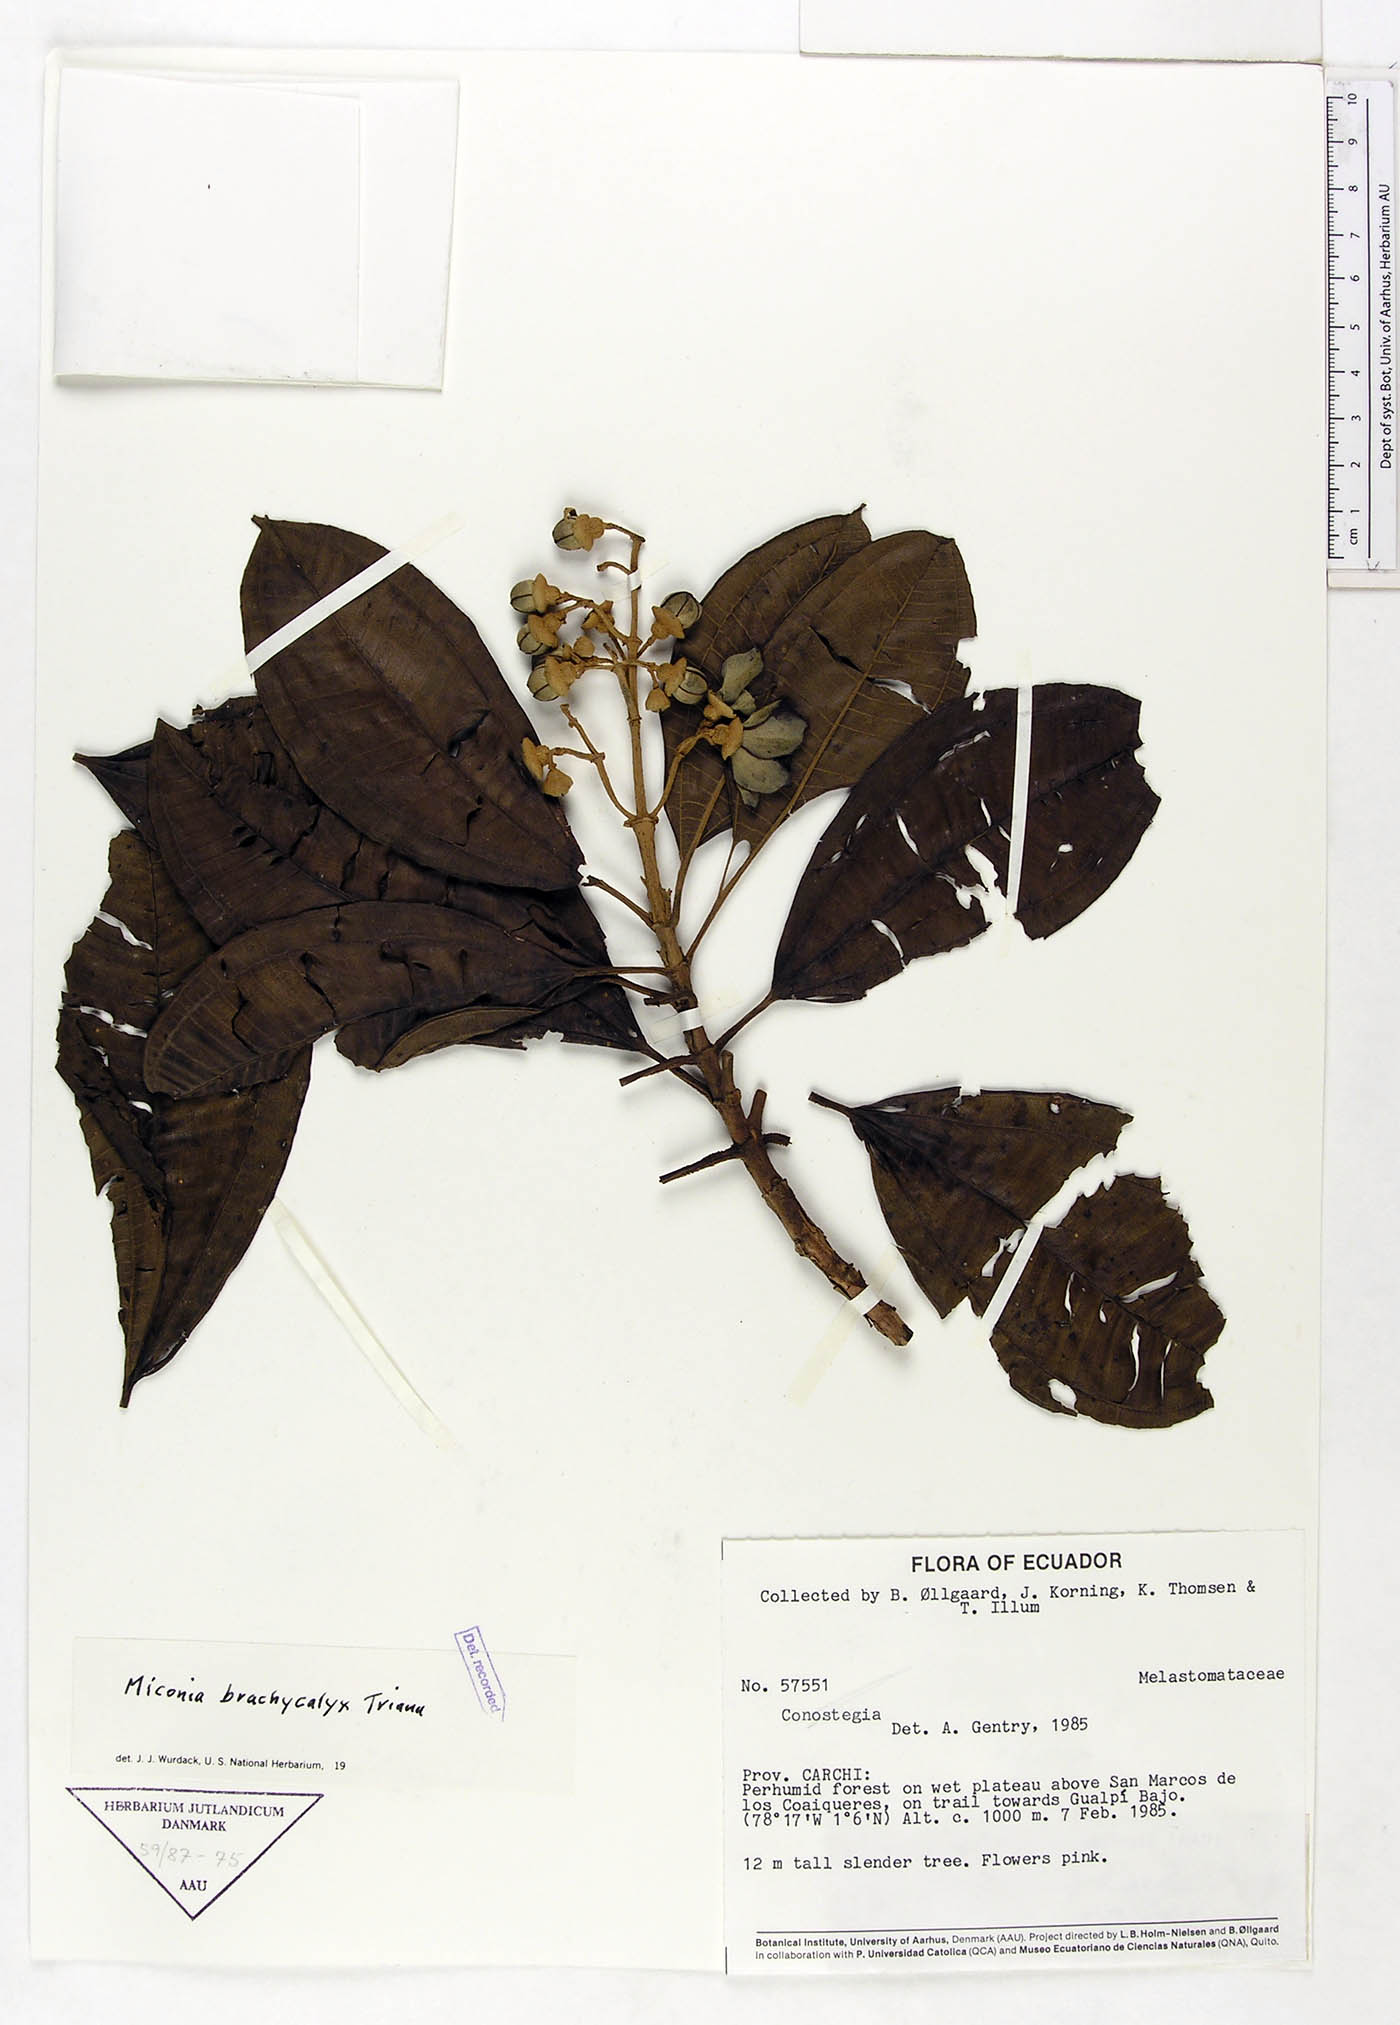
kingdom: Plantae
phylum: Tracheophyta
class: Magnoliopsida
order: Myrtales
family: Melastomataceae
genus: Miconia
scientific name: Miconia brachycalyx
